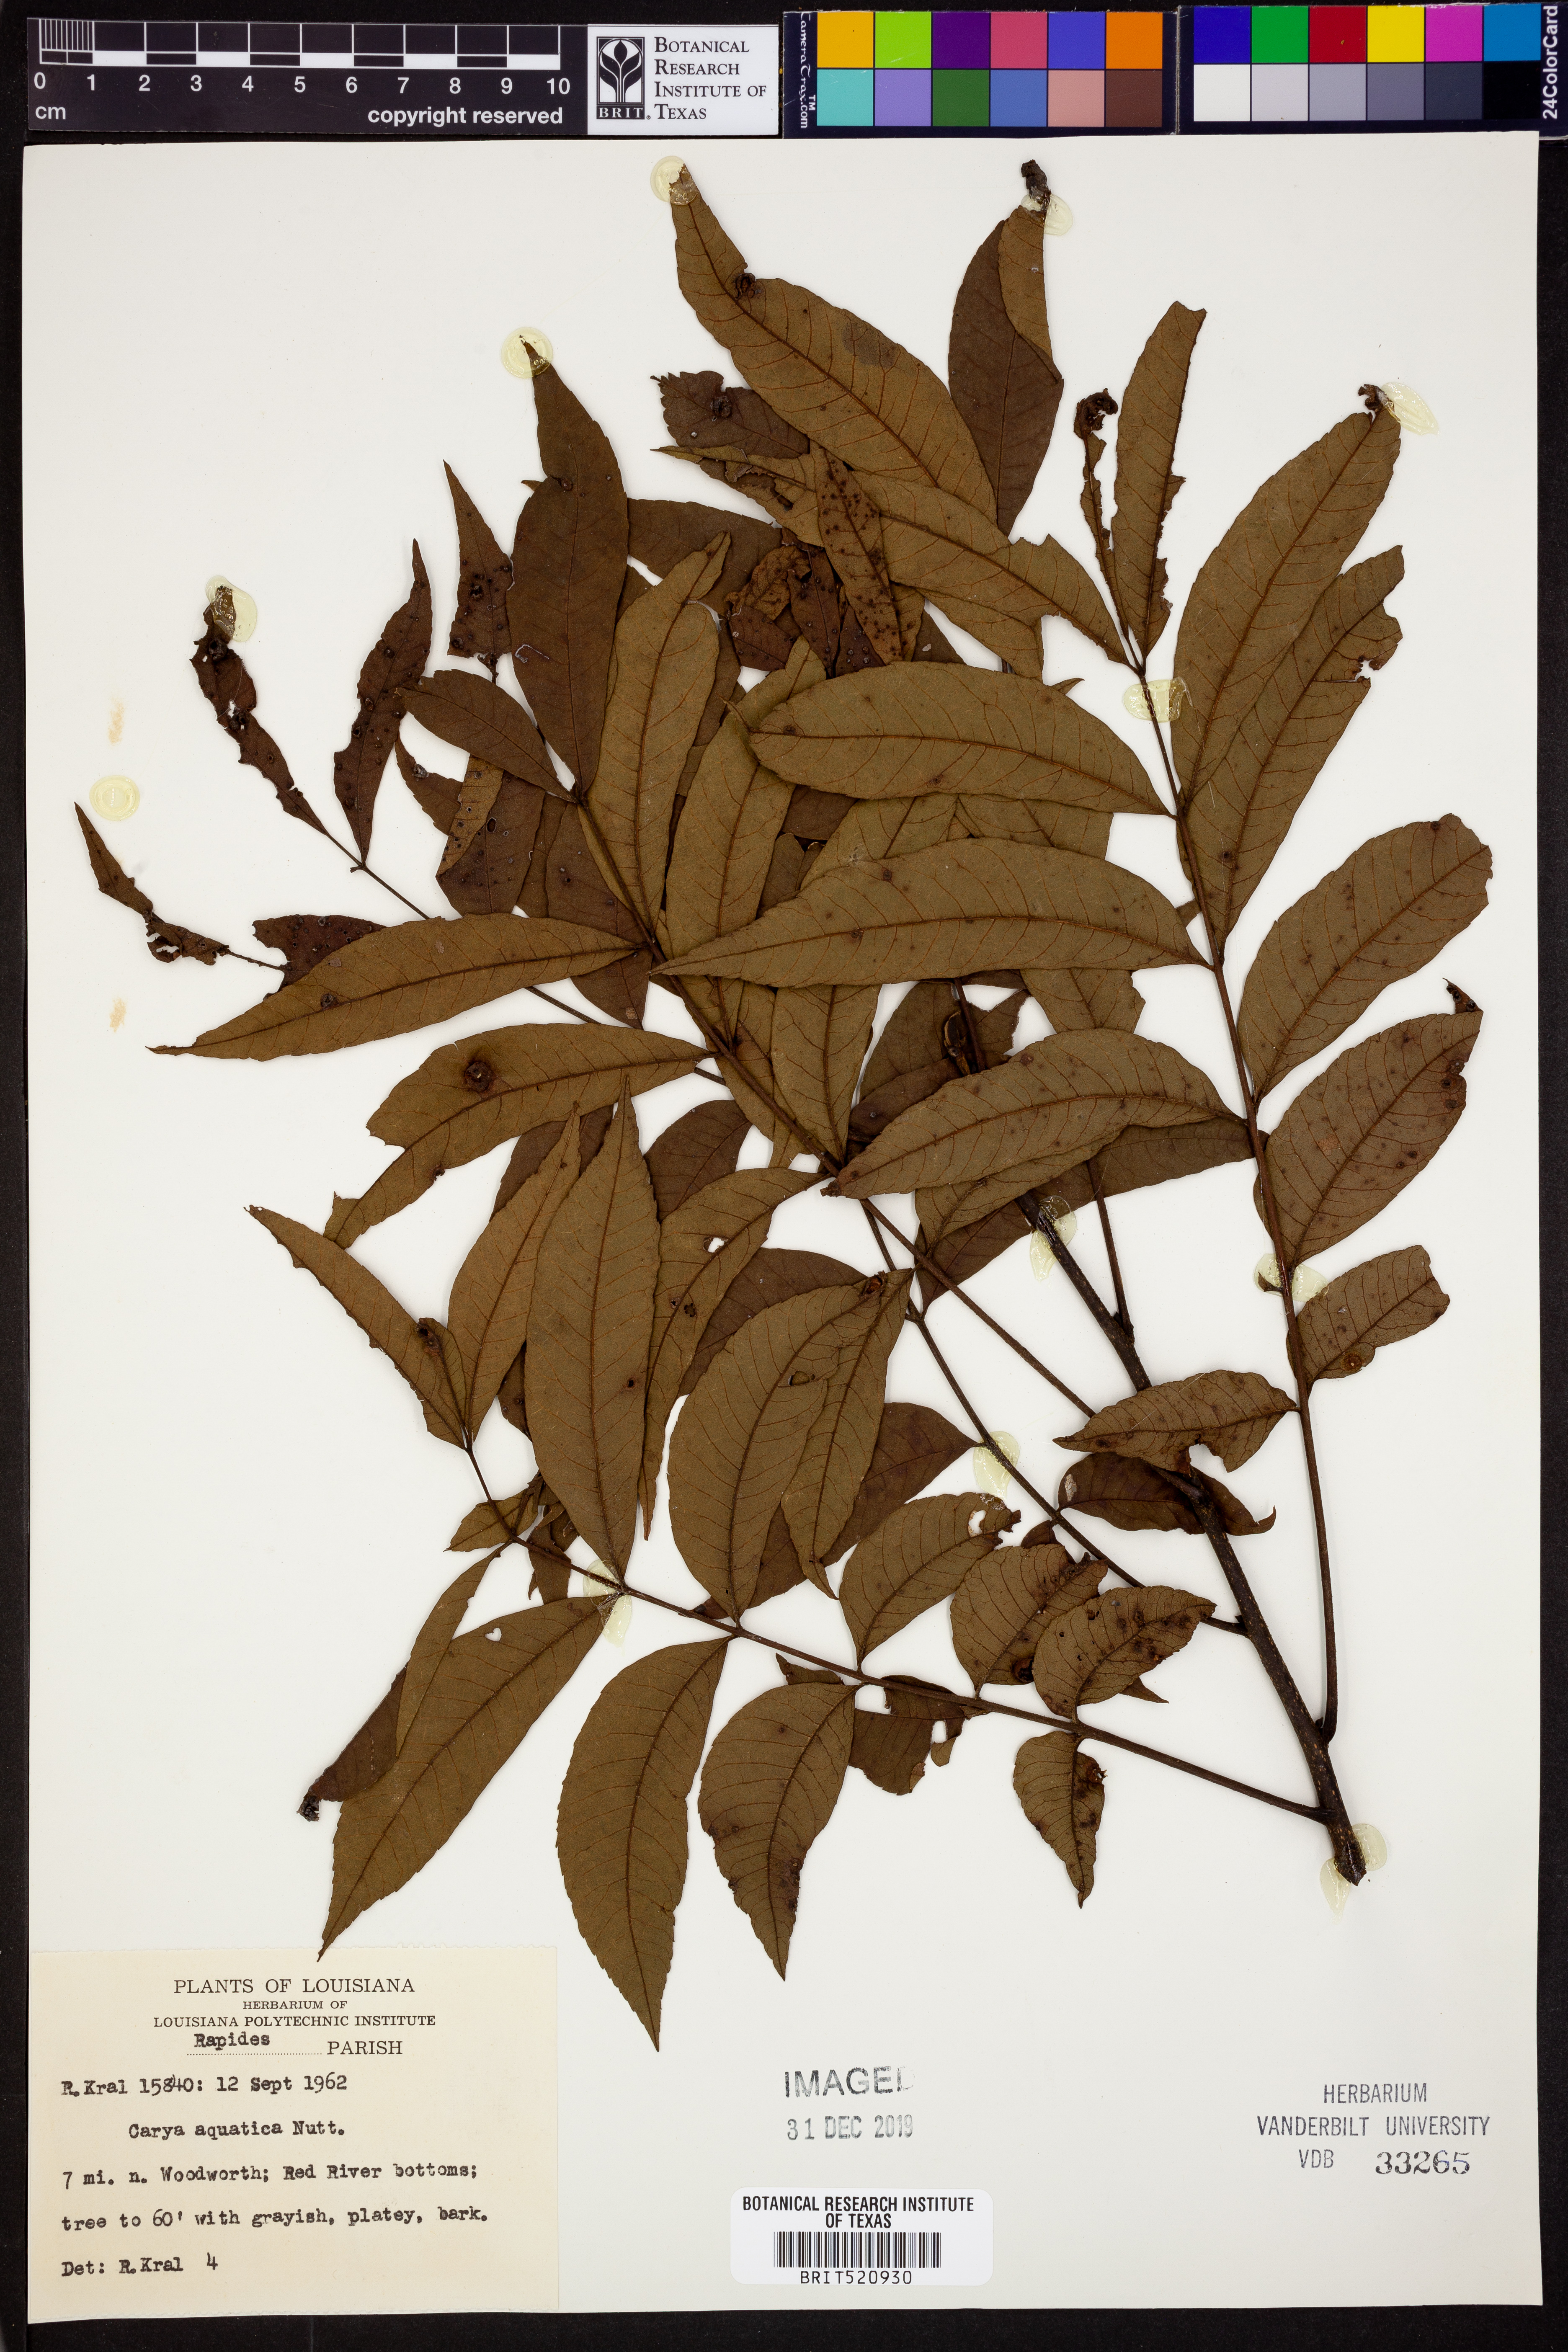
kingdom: Plantae
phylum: Tracheophyta
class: Magnoliopsida
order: Fagales
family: Juglandaceae
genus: Carya
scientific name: Carya aquatica
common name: Water hickory
